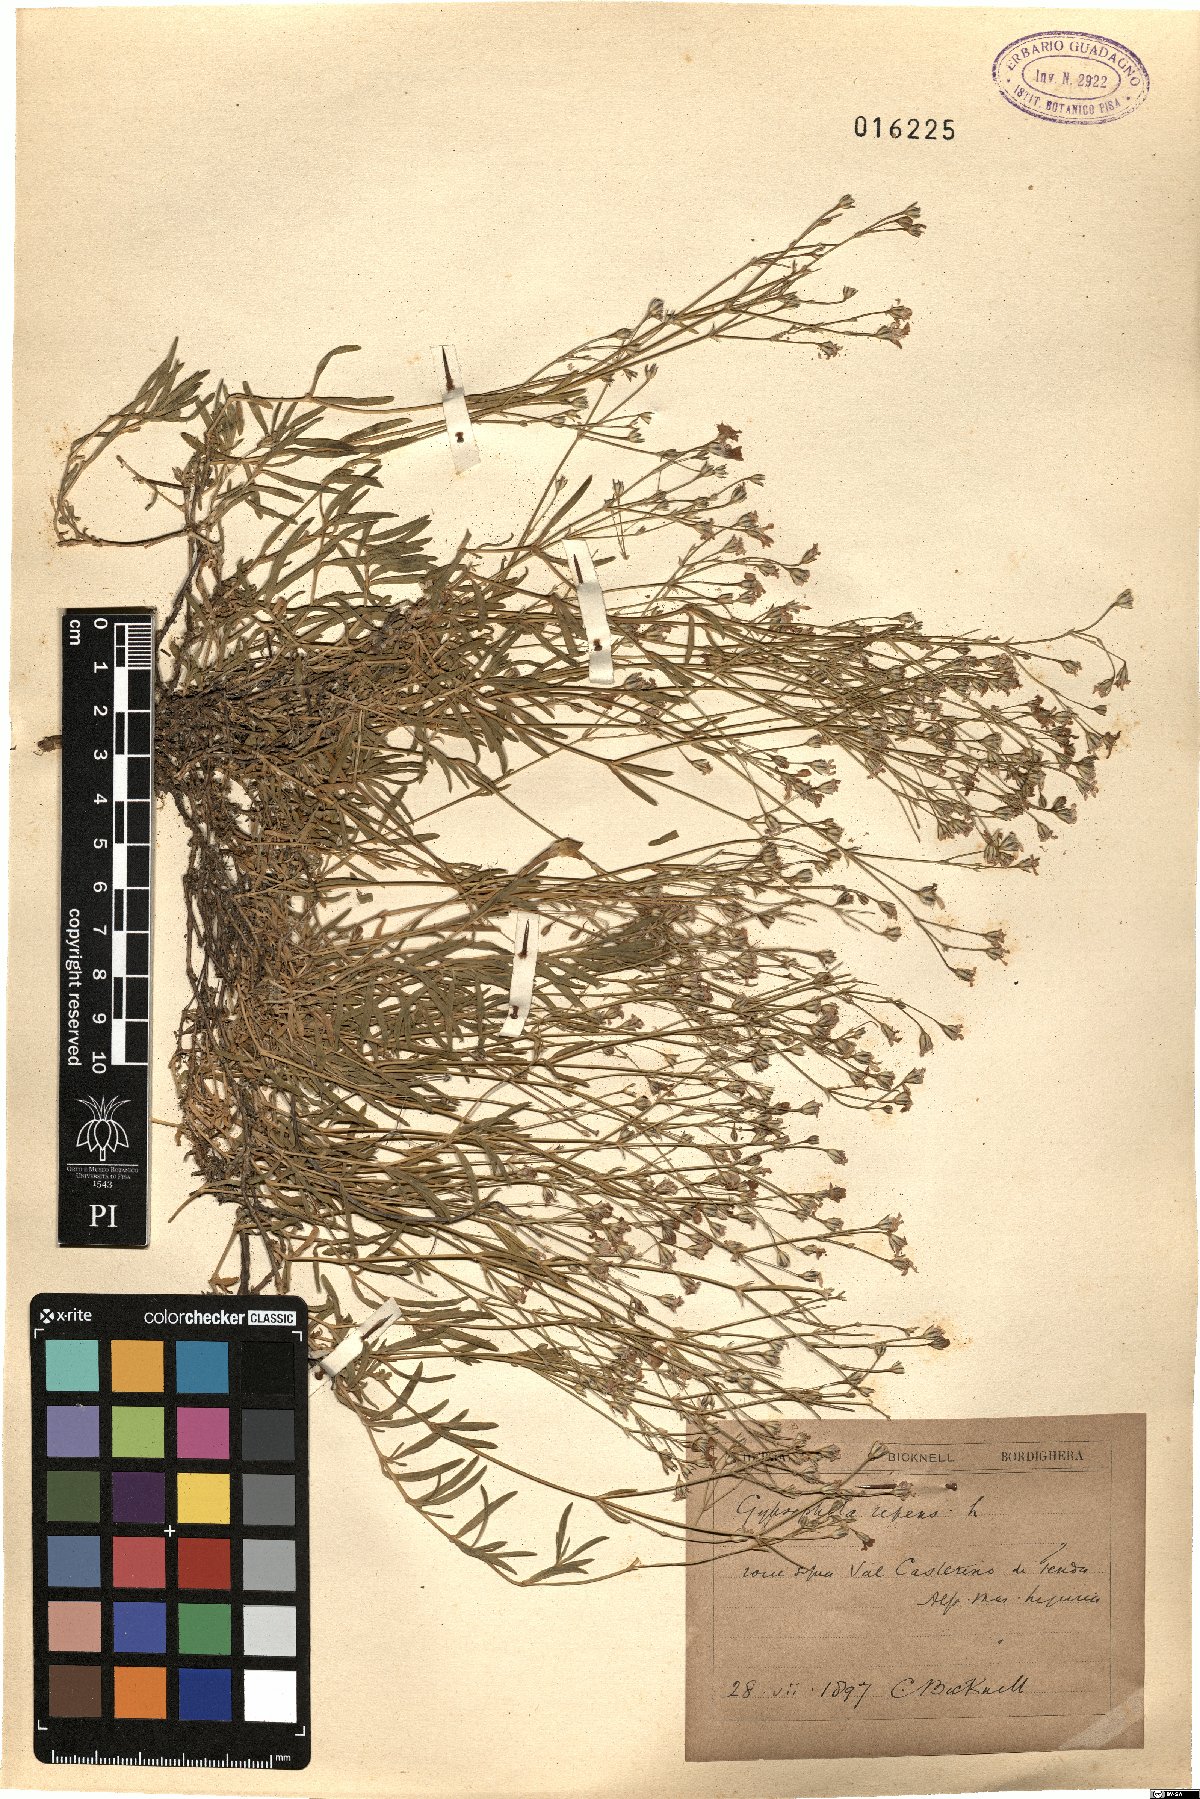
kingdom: Plantae
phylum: Tracheophyta
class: Magnoliopsida
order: Caryophyllales
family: Caryophyllaceae
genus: Gypsophila
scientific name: Gypsophila repens
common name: Creeping baby's-breath
